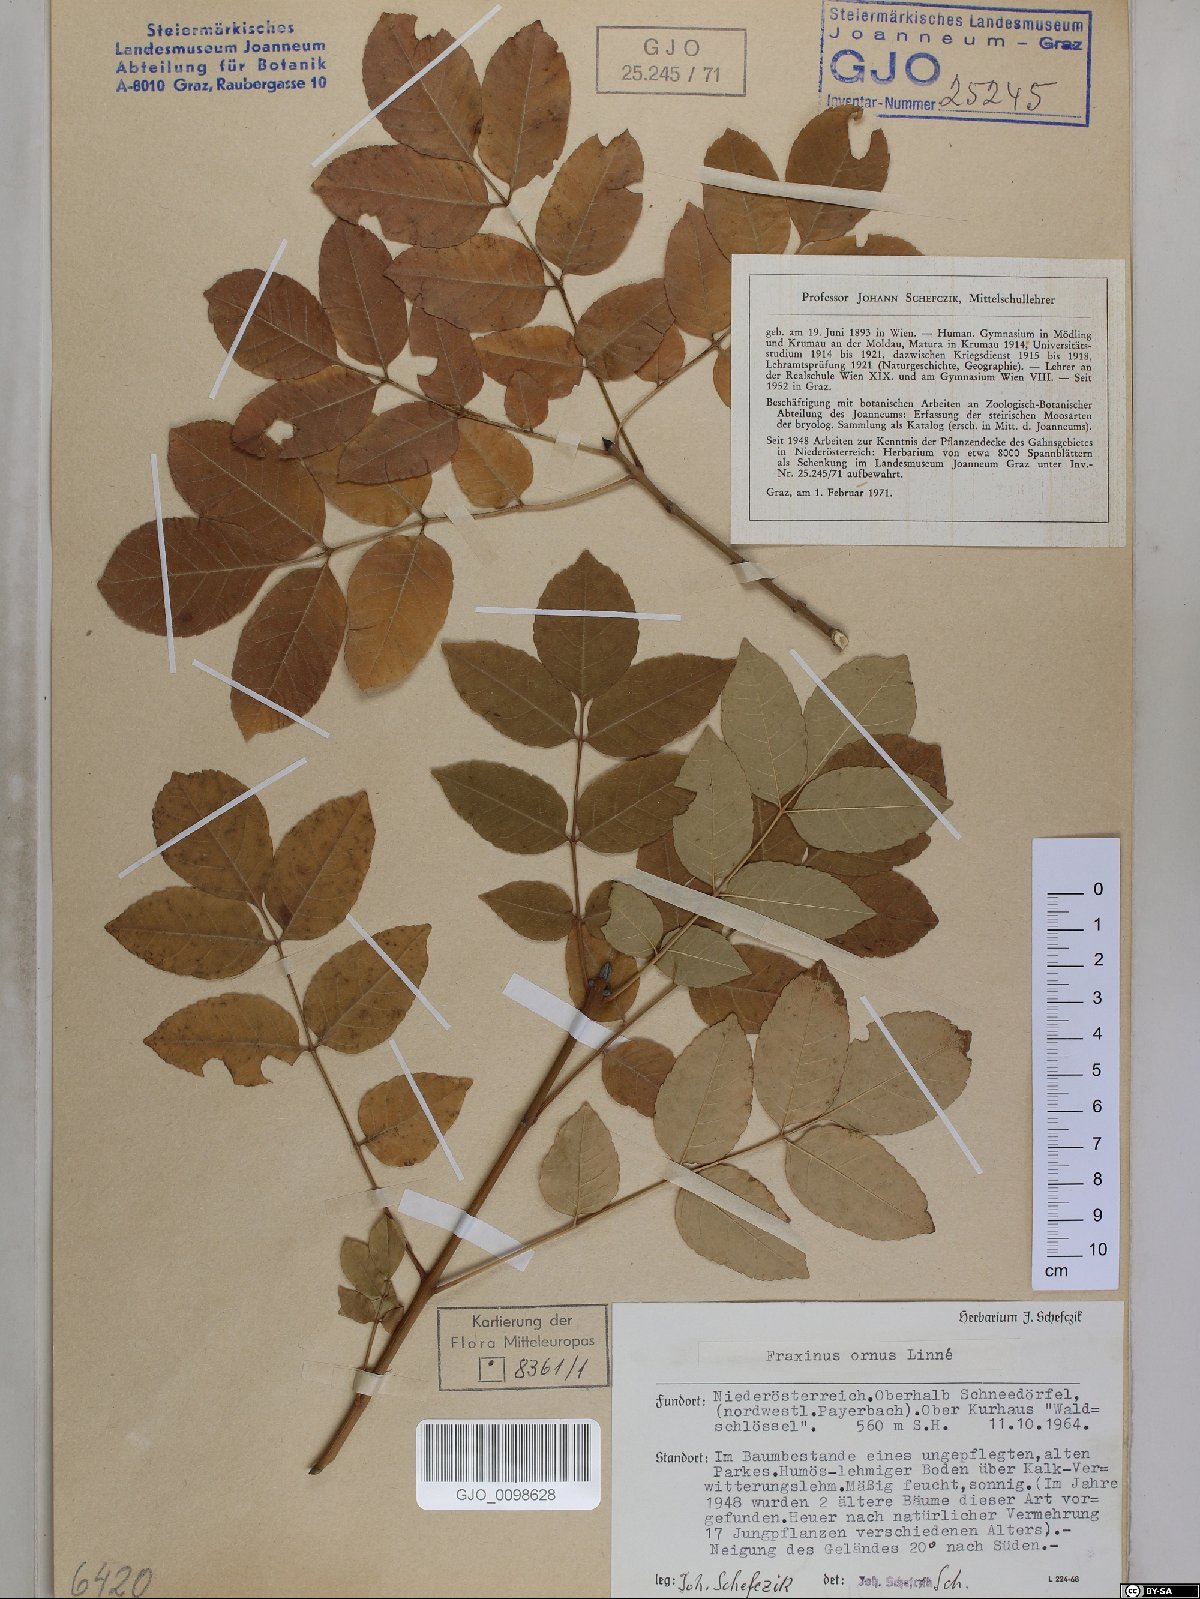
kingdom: Plantae
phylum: Tracheophyta
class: Magnoliopsida
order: Lamiales
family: Oleaceae
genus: Fraxinus
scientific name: Fraxinus ornus
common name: Manna ash
